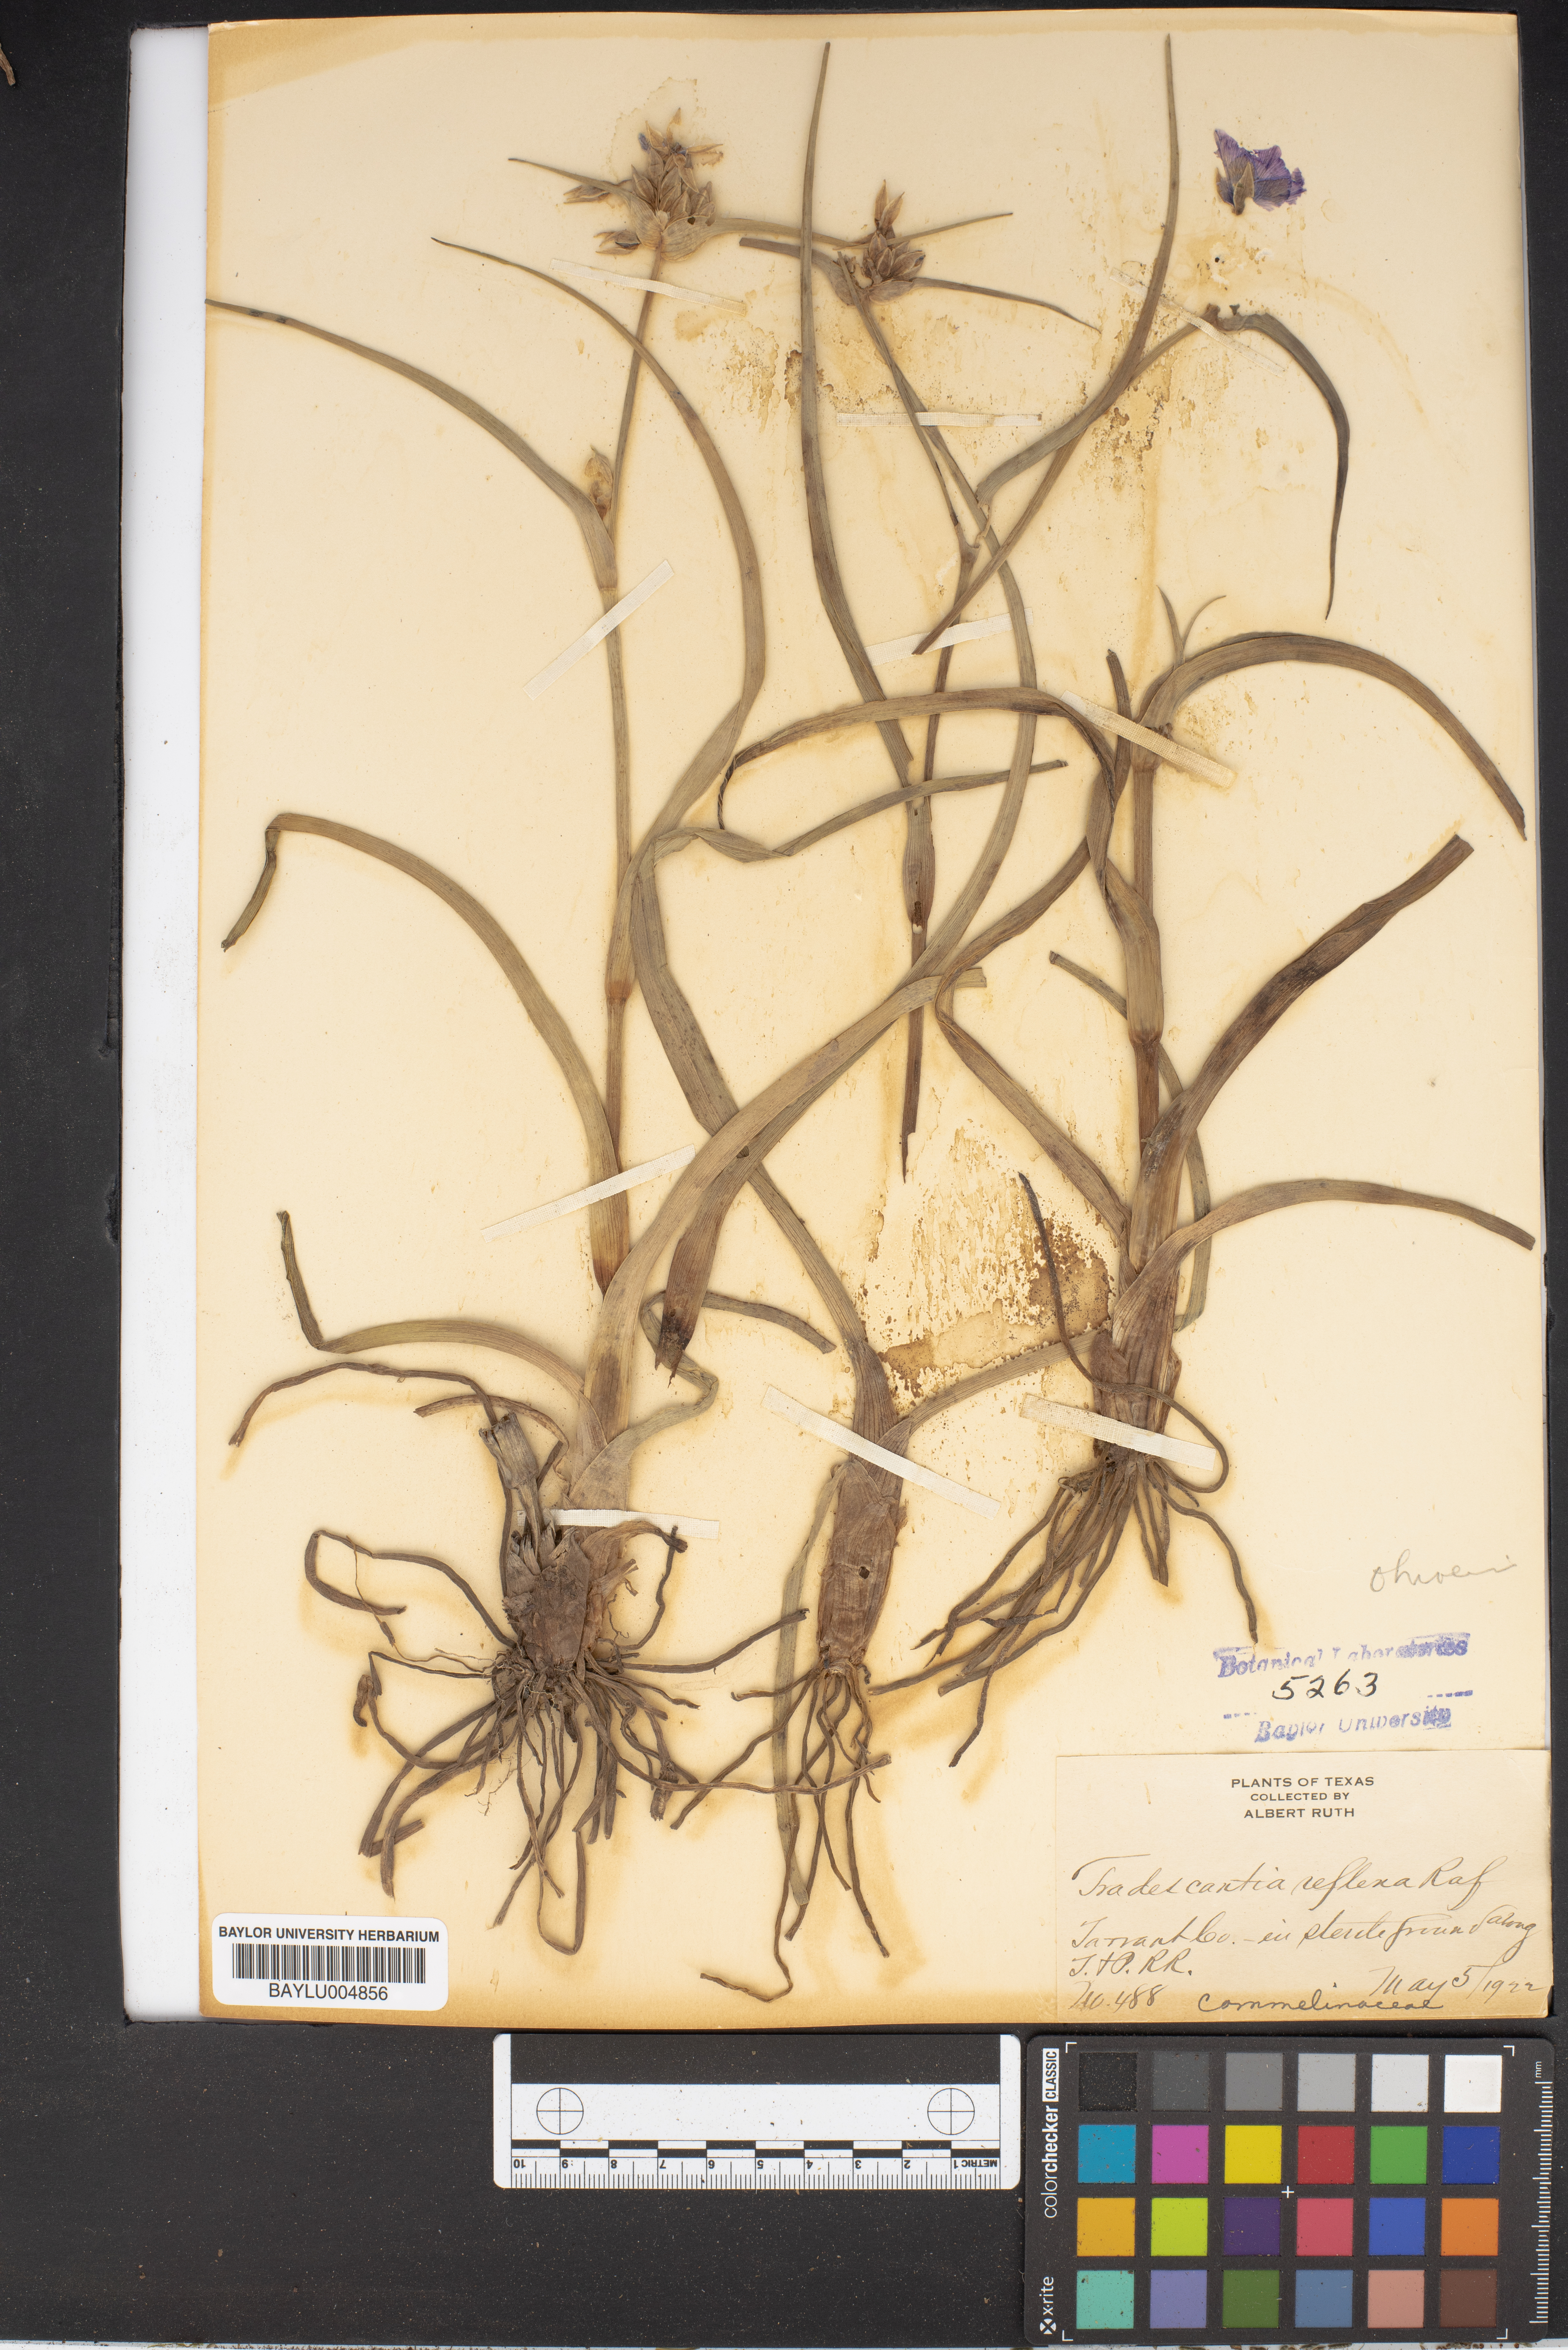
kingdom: Plantae
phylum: Tracheophyta
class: Liliopsida
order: Commelinales
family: Commelinaceae
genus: Tradescantia
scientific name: Tradescantia ohiensis
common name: Ohio spiderwort
